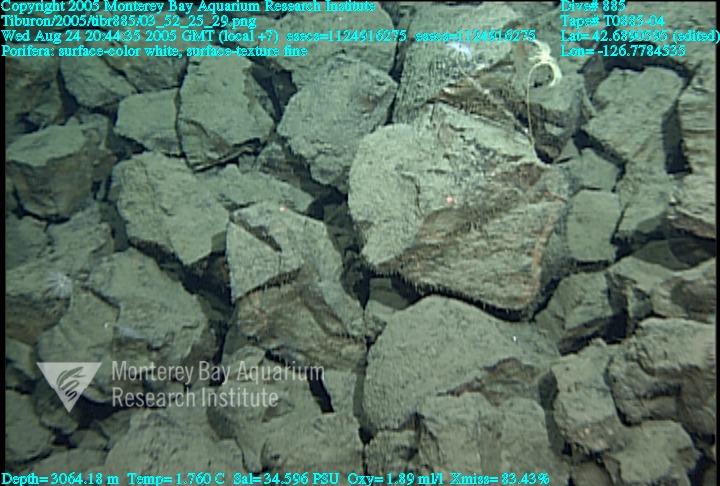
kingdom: Animalia
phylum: Porifera
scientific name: Porifera
